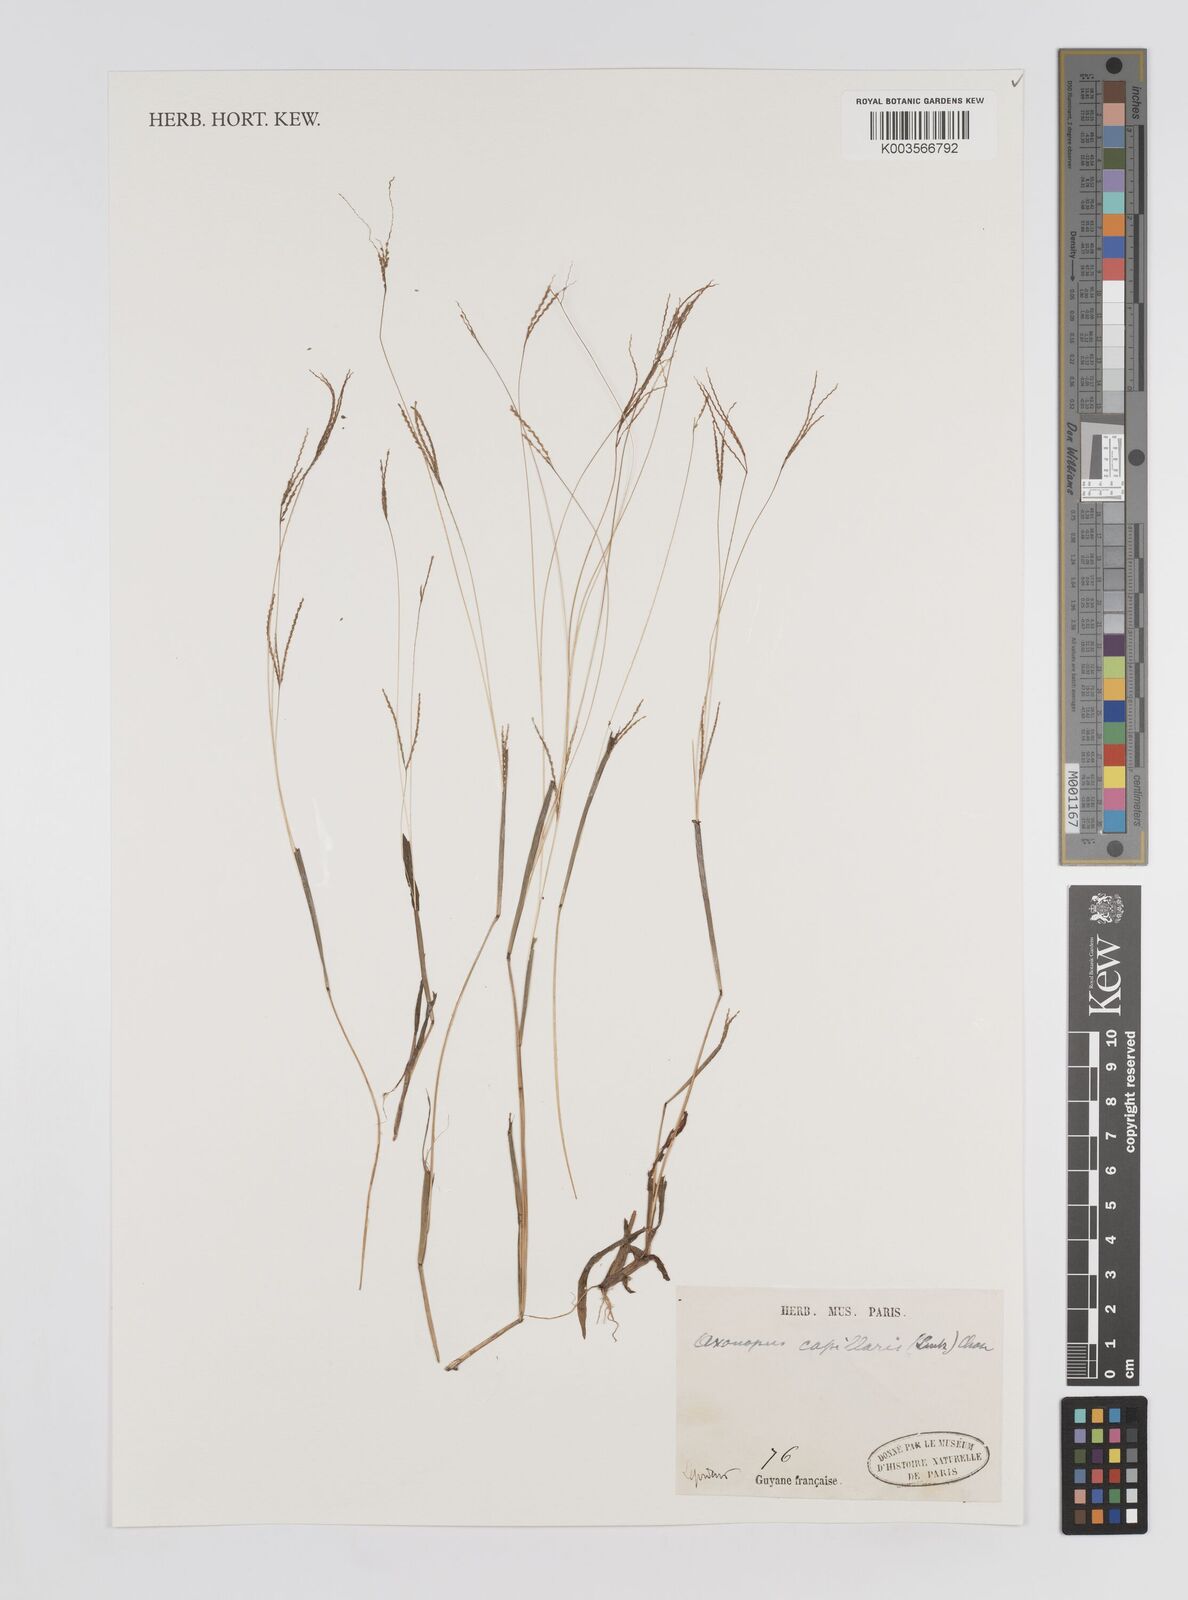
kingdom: Plantae
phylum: Tracheophyta
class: Liliopsida
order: Poales
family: Poaceae
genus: Axonopus
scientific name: Axonopus capillaris
